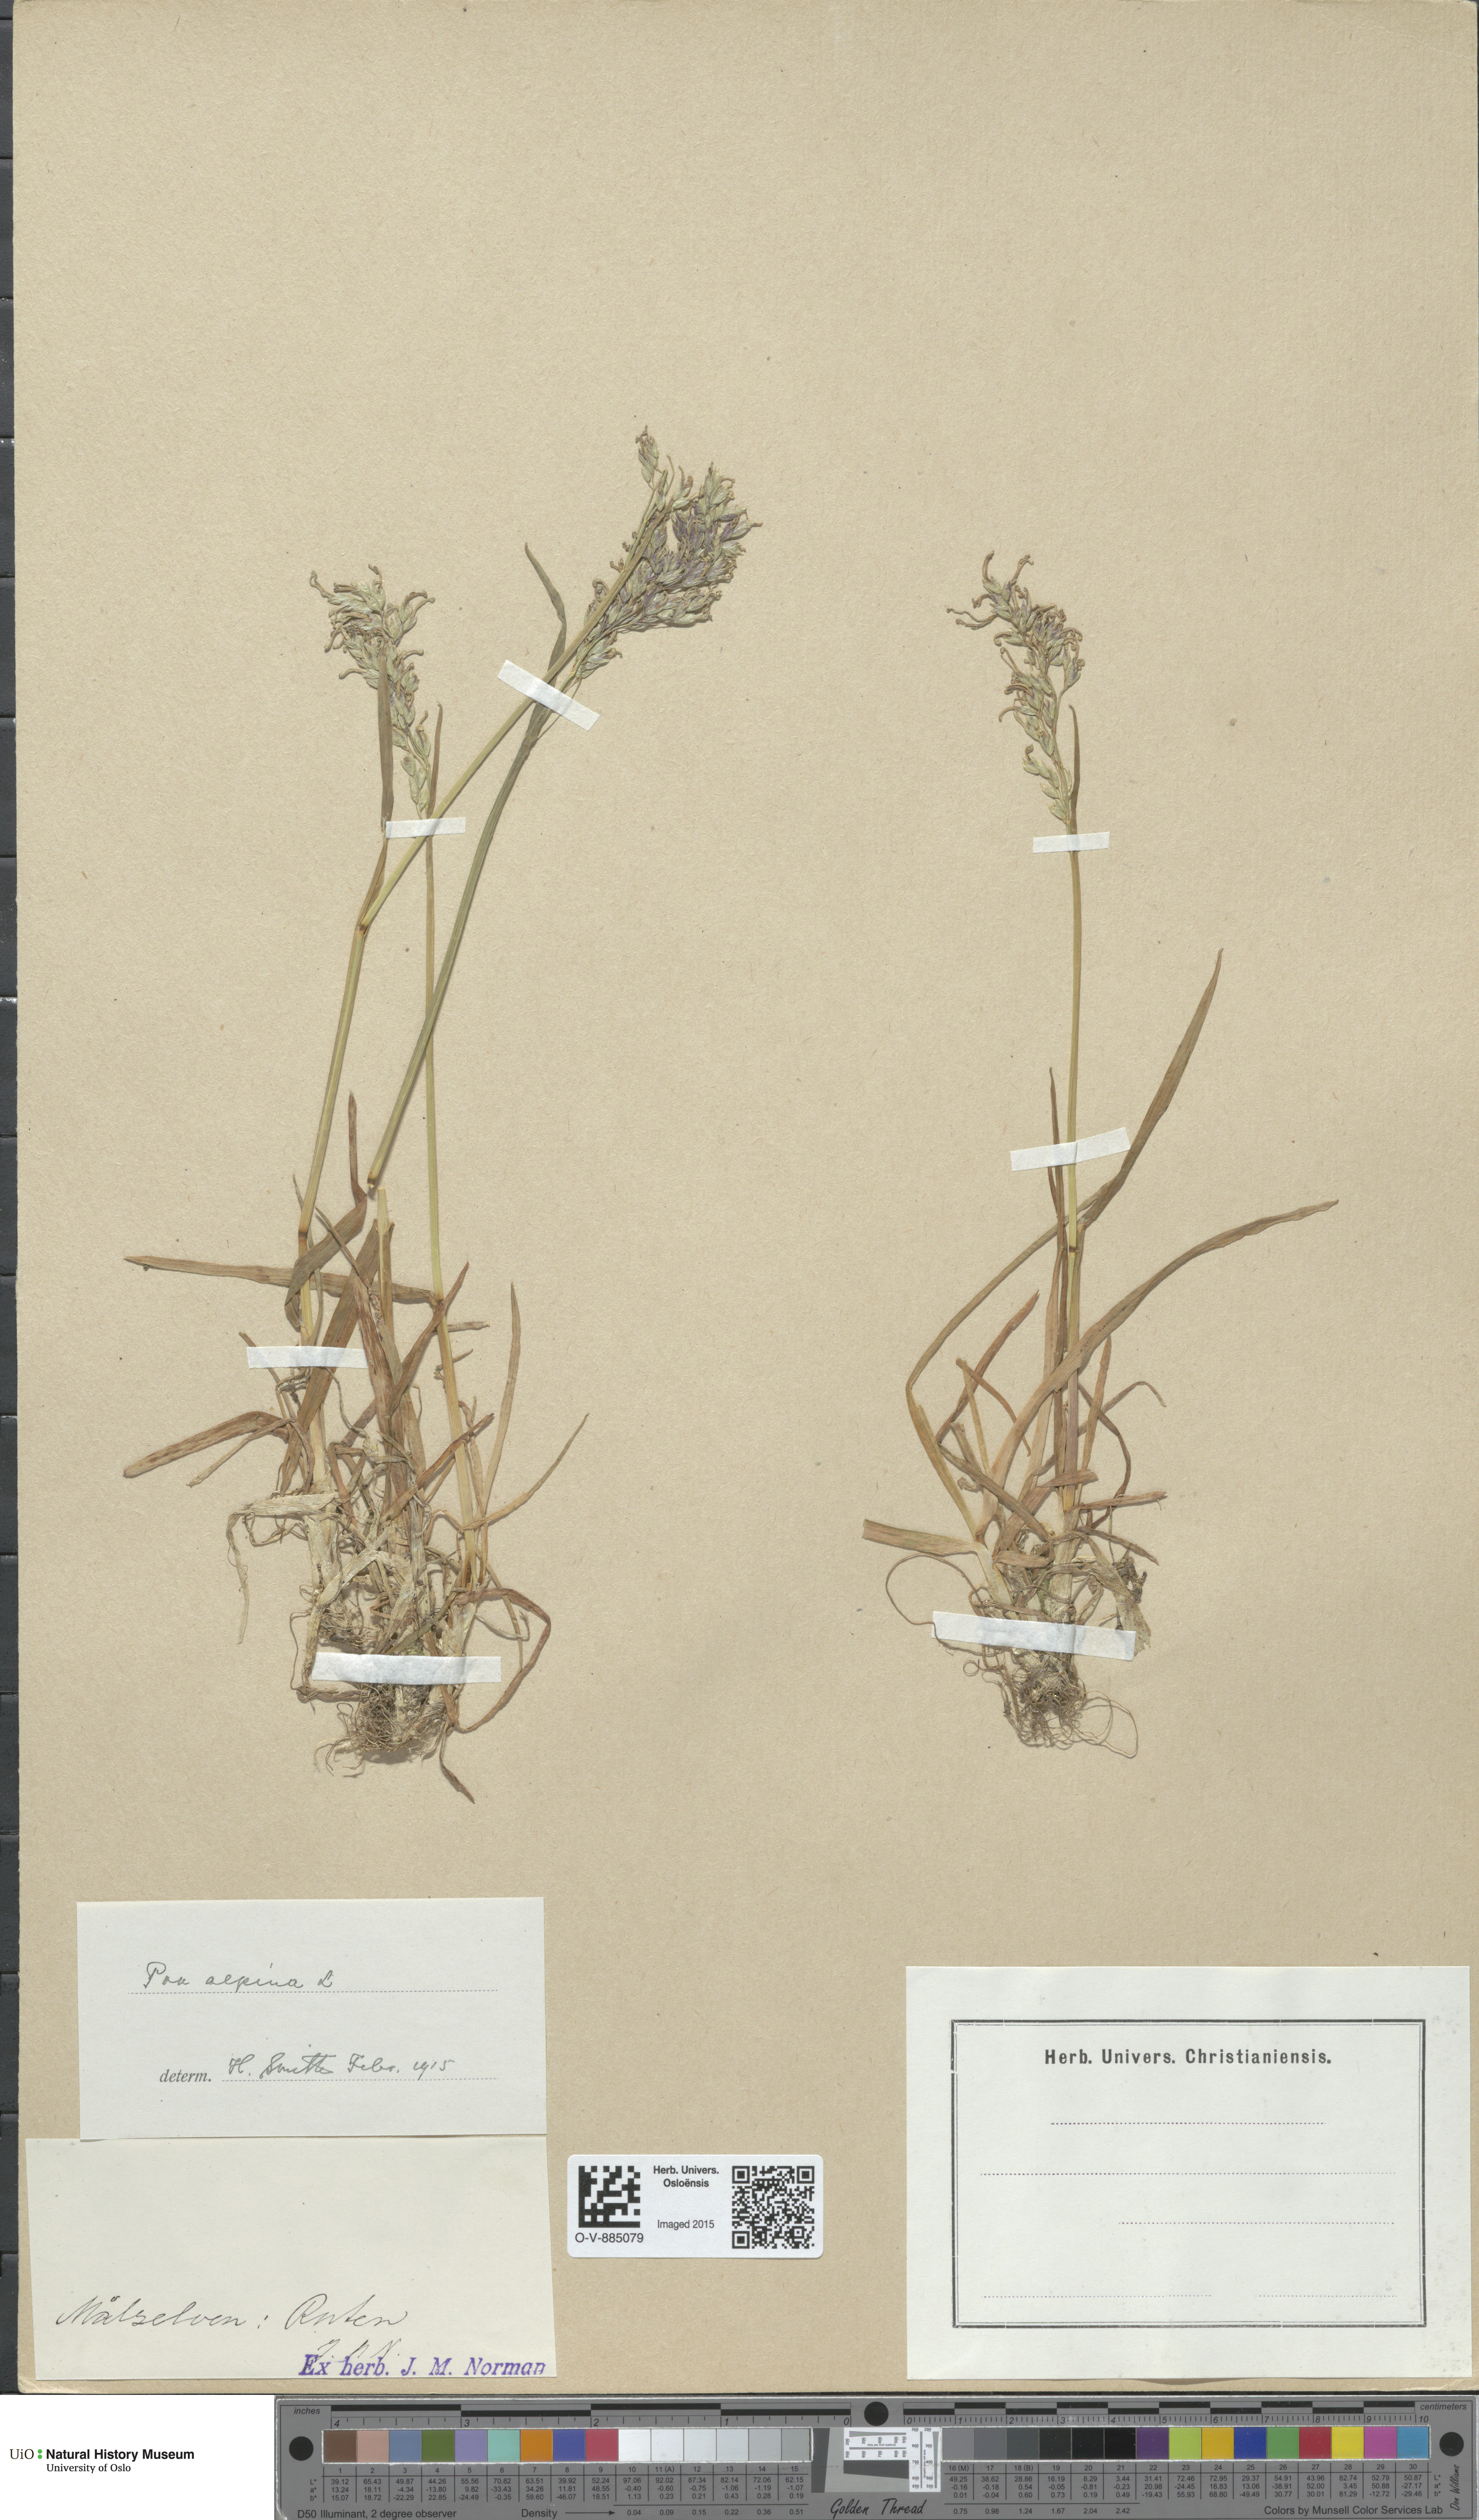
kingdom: Plantae
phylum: Tracheophyta
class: Liliopsida
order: Poales
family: Poaceae
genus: Poa
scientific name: Poa alpina
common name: Alpine bluegrass
